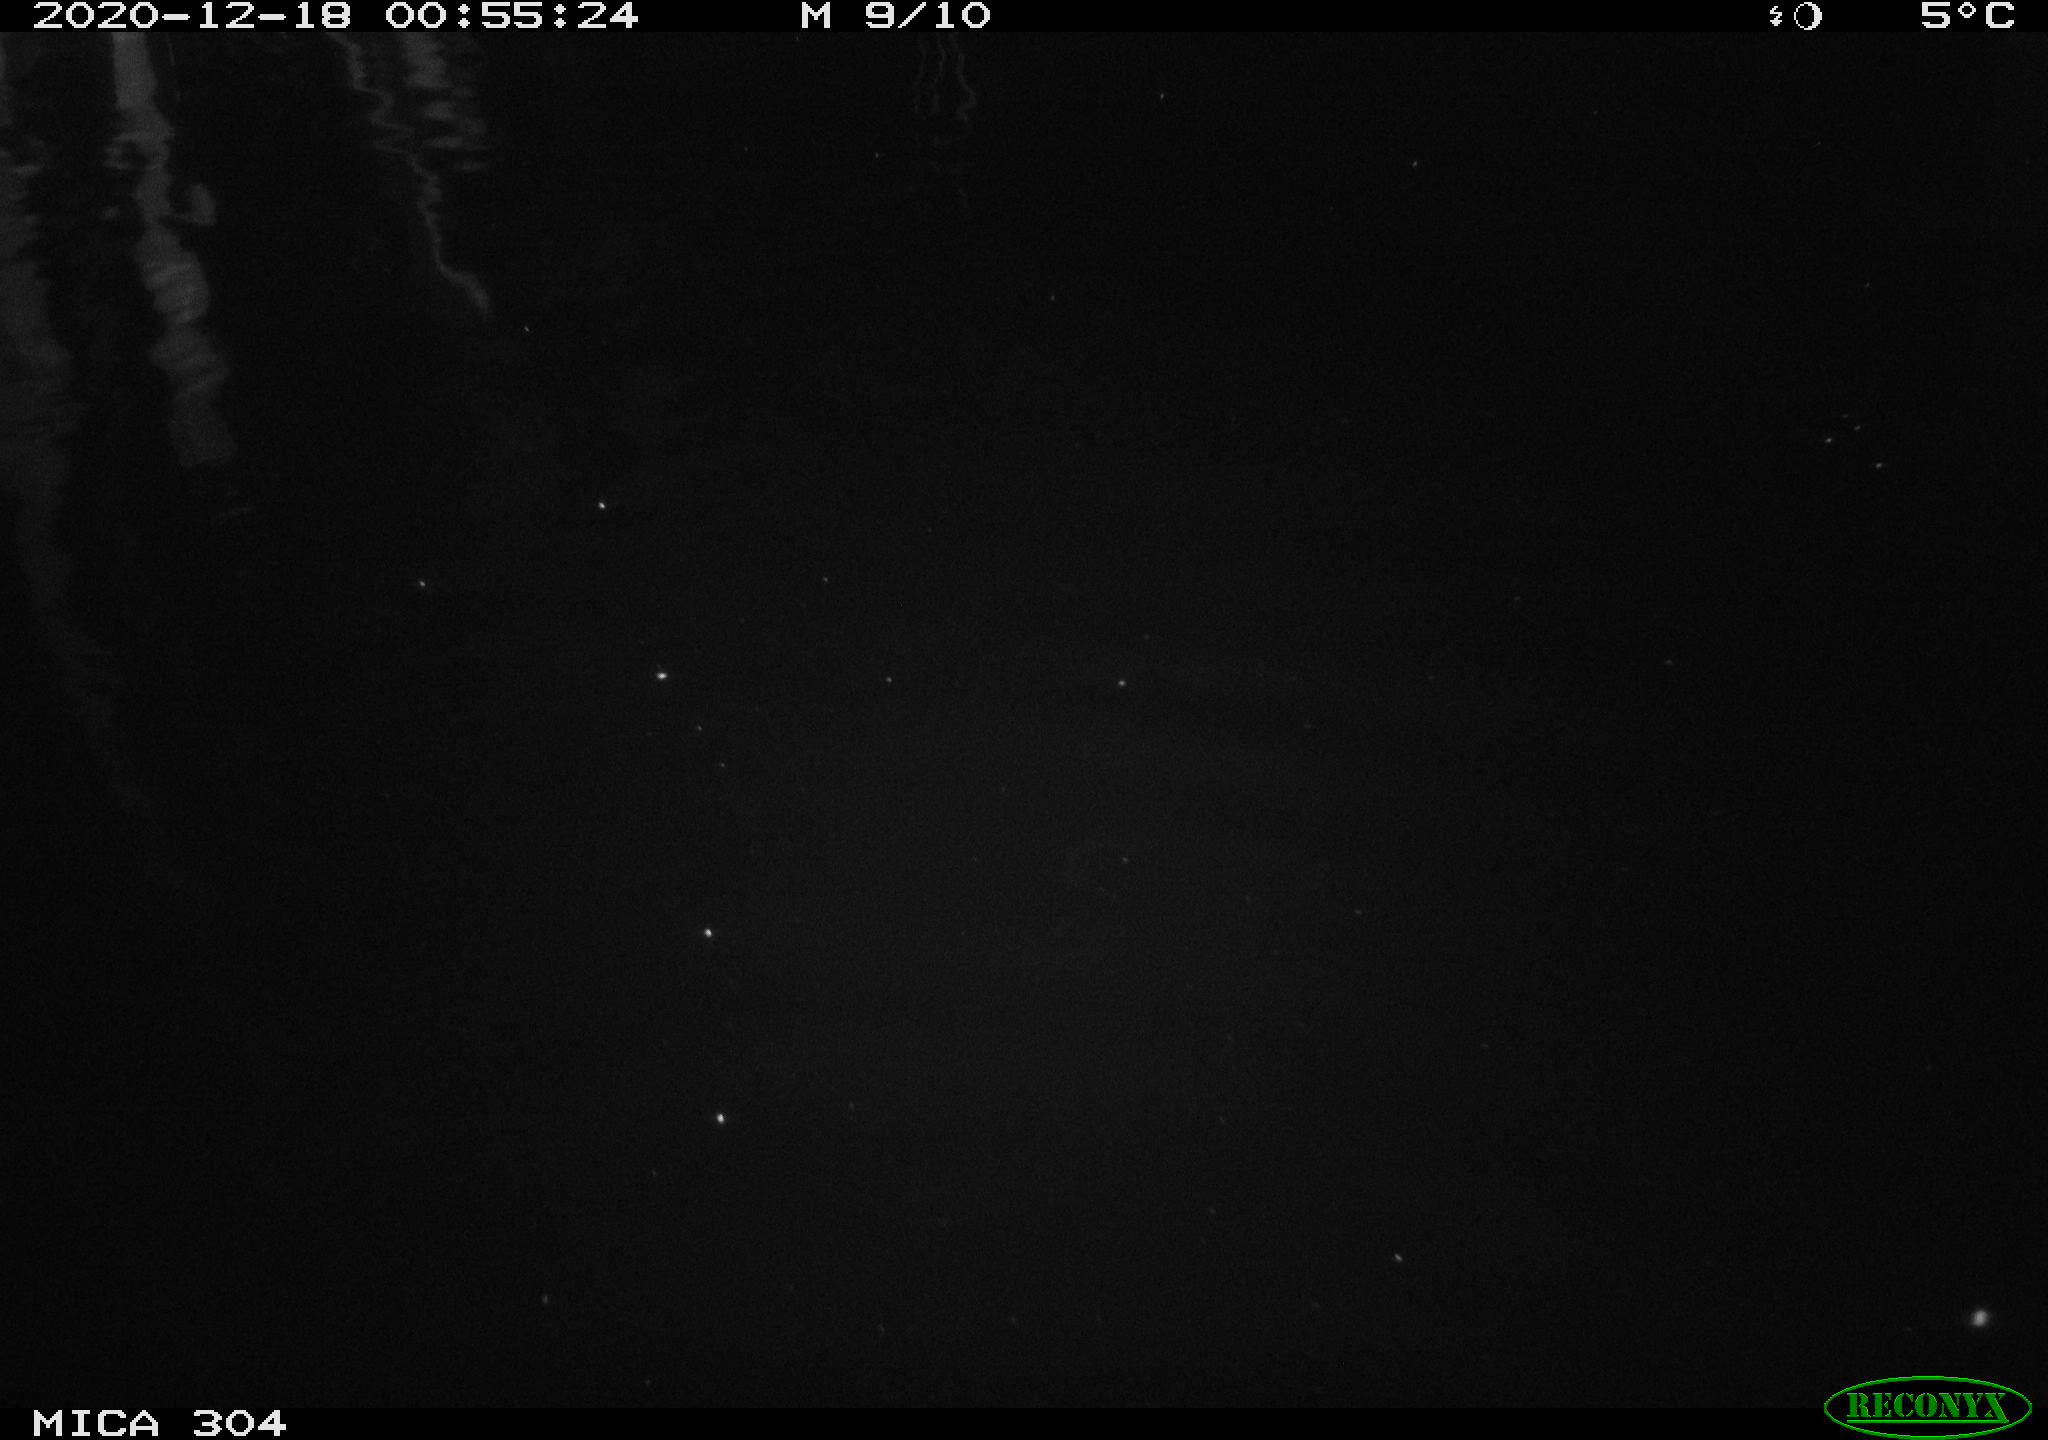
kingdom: Animalia
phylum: Chordata
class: Mammalia
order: Rodentia
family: Muridae
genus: Rattus
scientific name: Rattus norvegicus
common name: Brown rat
